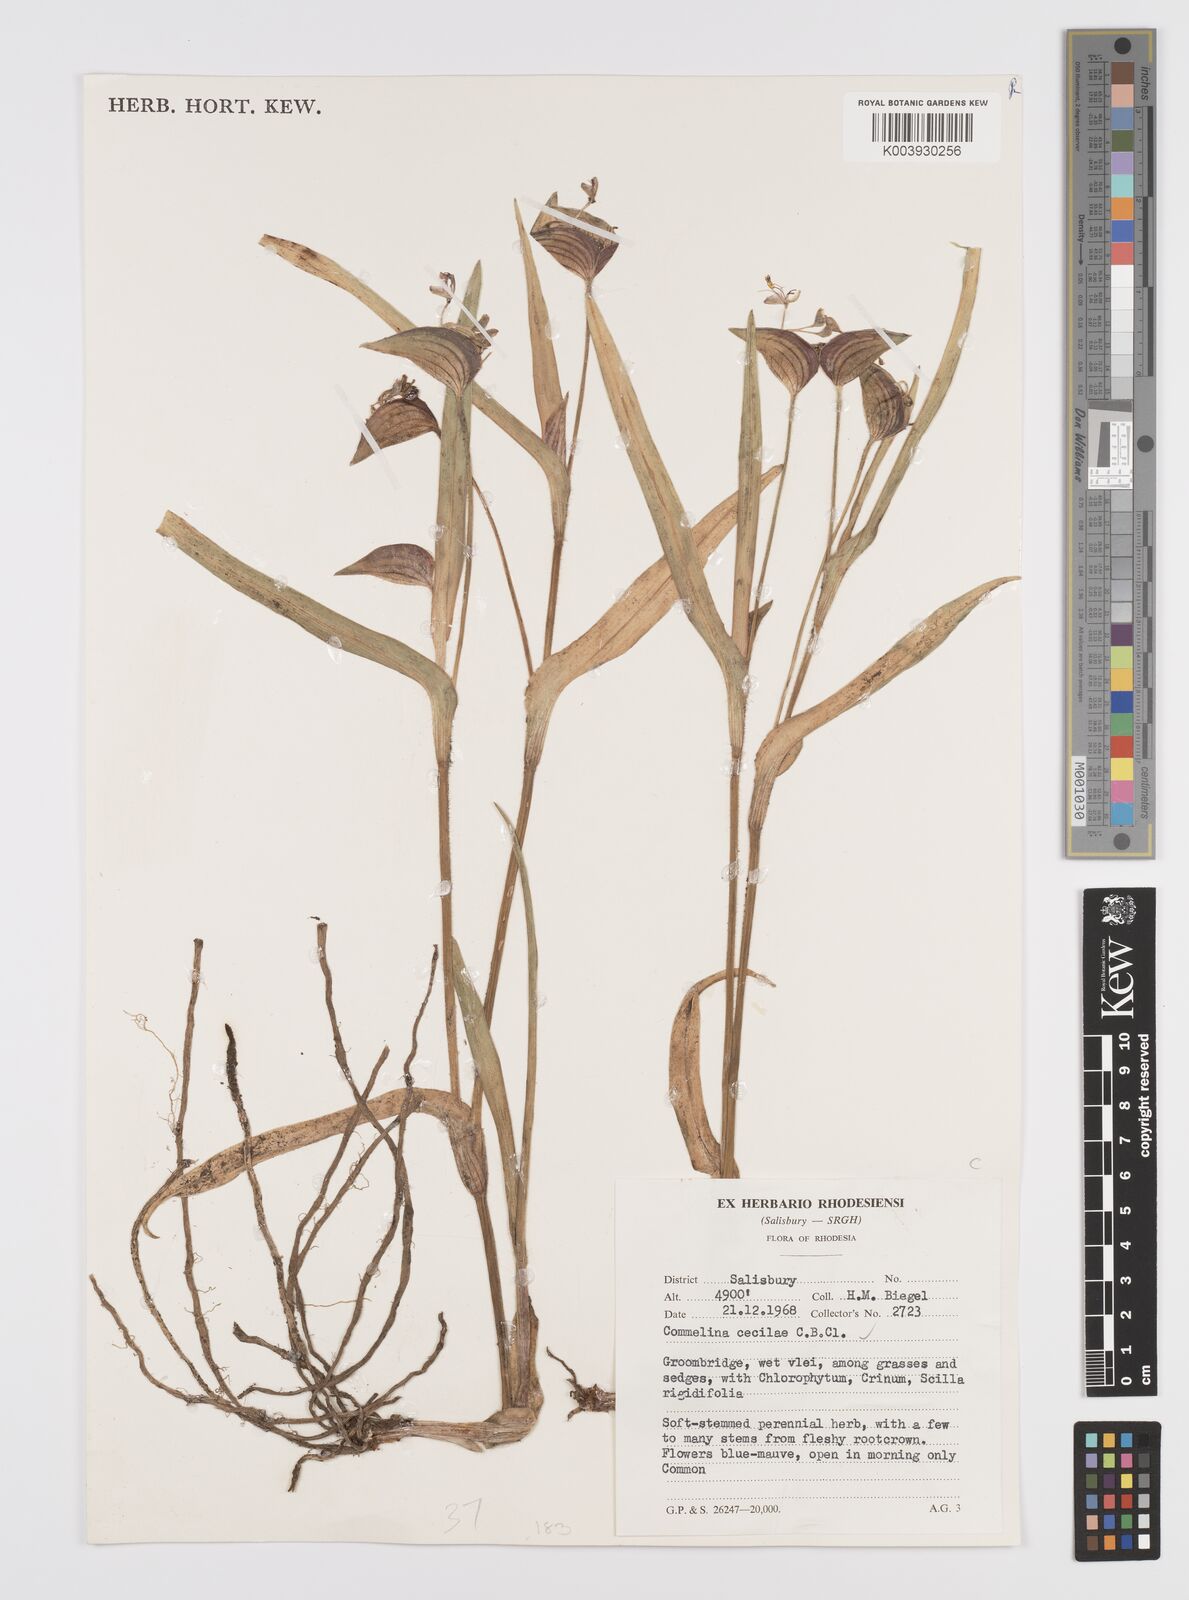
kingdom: Plantae
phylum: Tracheophyta
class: Liliopsida
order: Commelinales
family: Commelinaceae
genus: Commelina
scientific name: Commelina schweinfurthii
